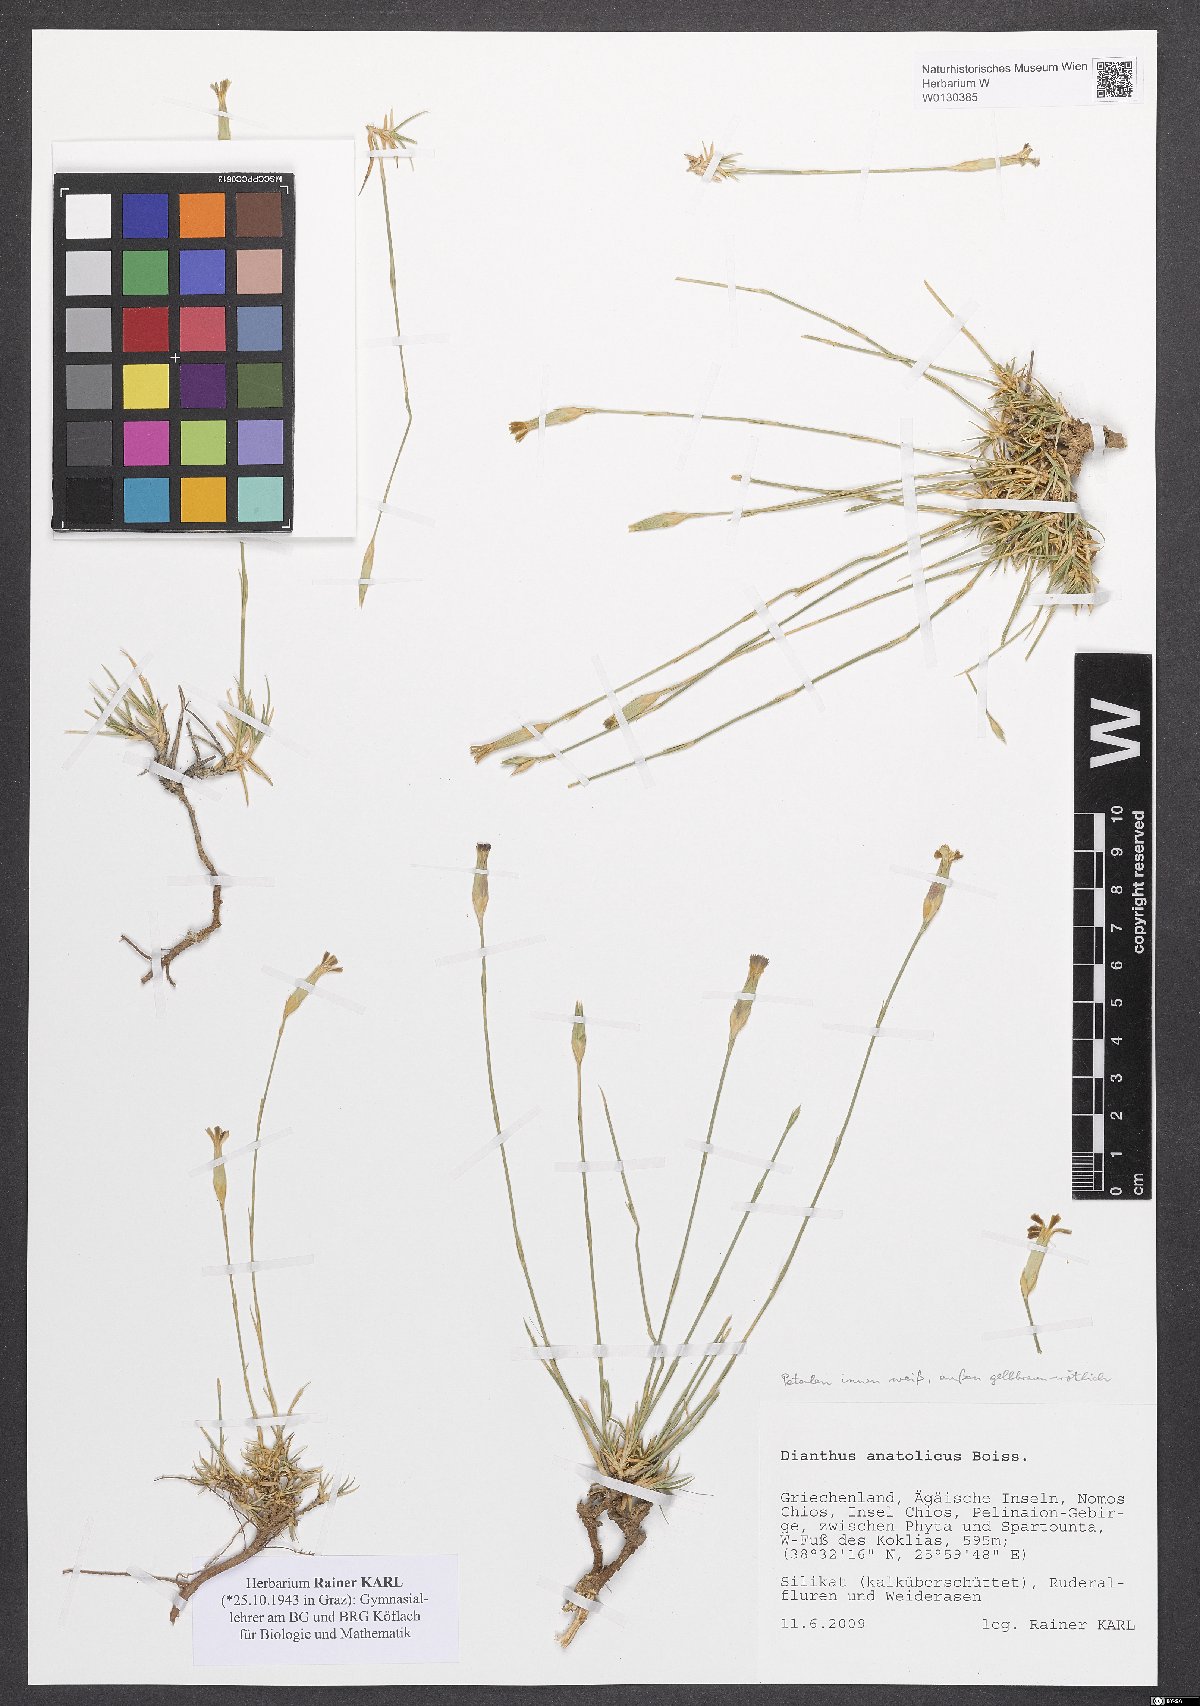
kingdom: Plantae
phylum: Tracheophyta
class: Magnoliopsida
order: Caryophyllales
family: Caryophyllaceae
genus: Dianthus
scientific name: Dianthus anatolicus
